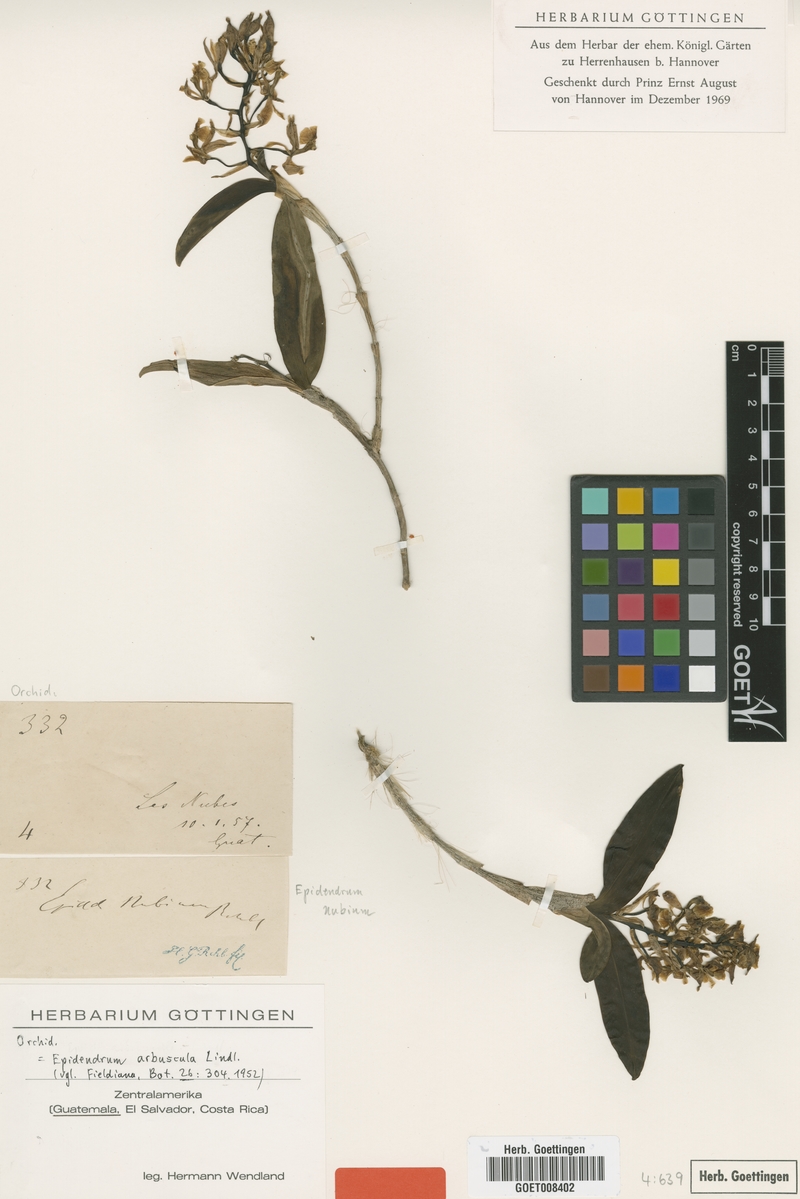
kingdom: Plantae
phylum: Tracheophyta
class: Liliopsida
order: Asparagales
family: Orchidaceae
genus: Epidendrum
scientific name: Epidendrum arbuscula
